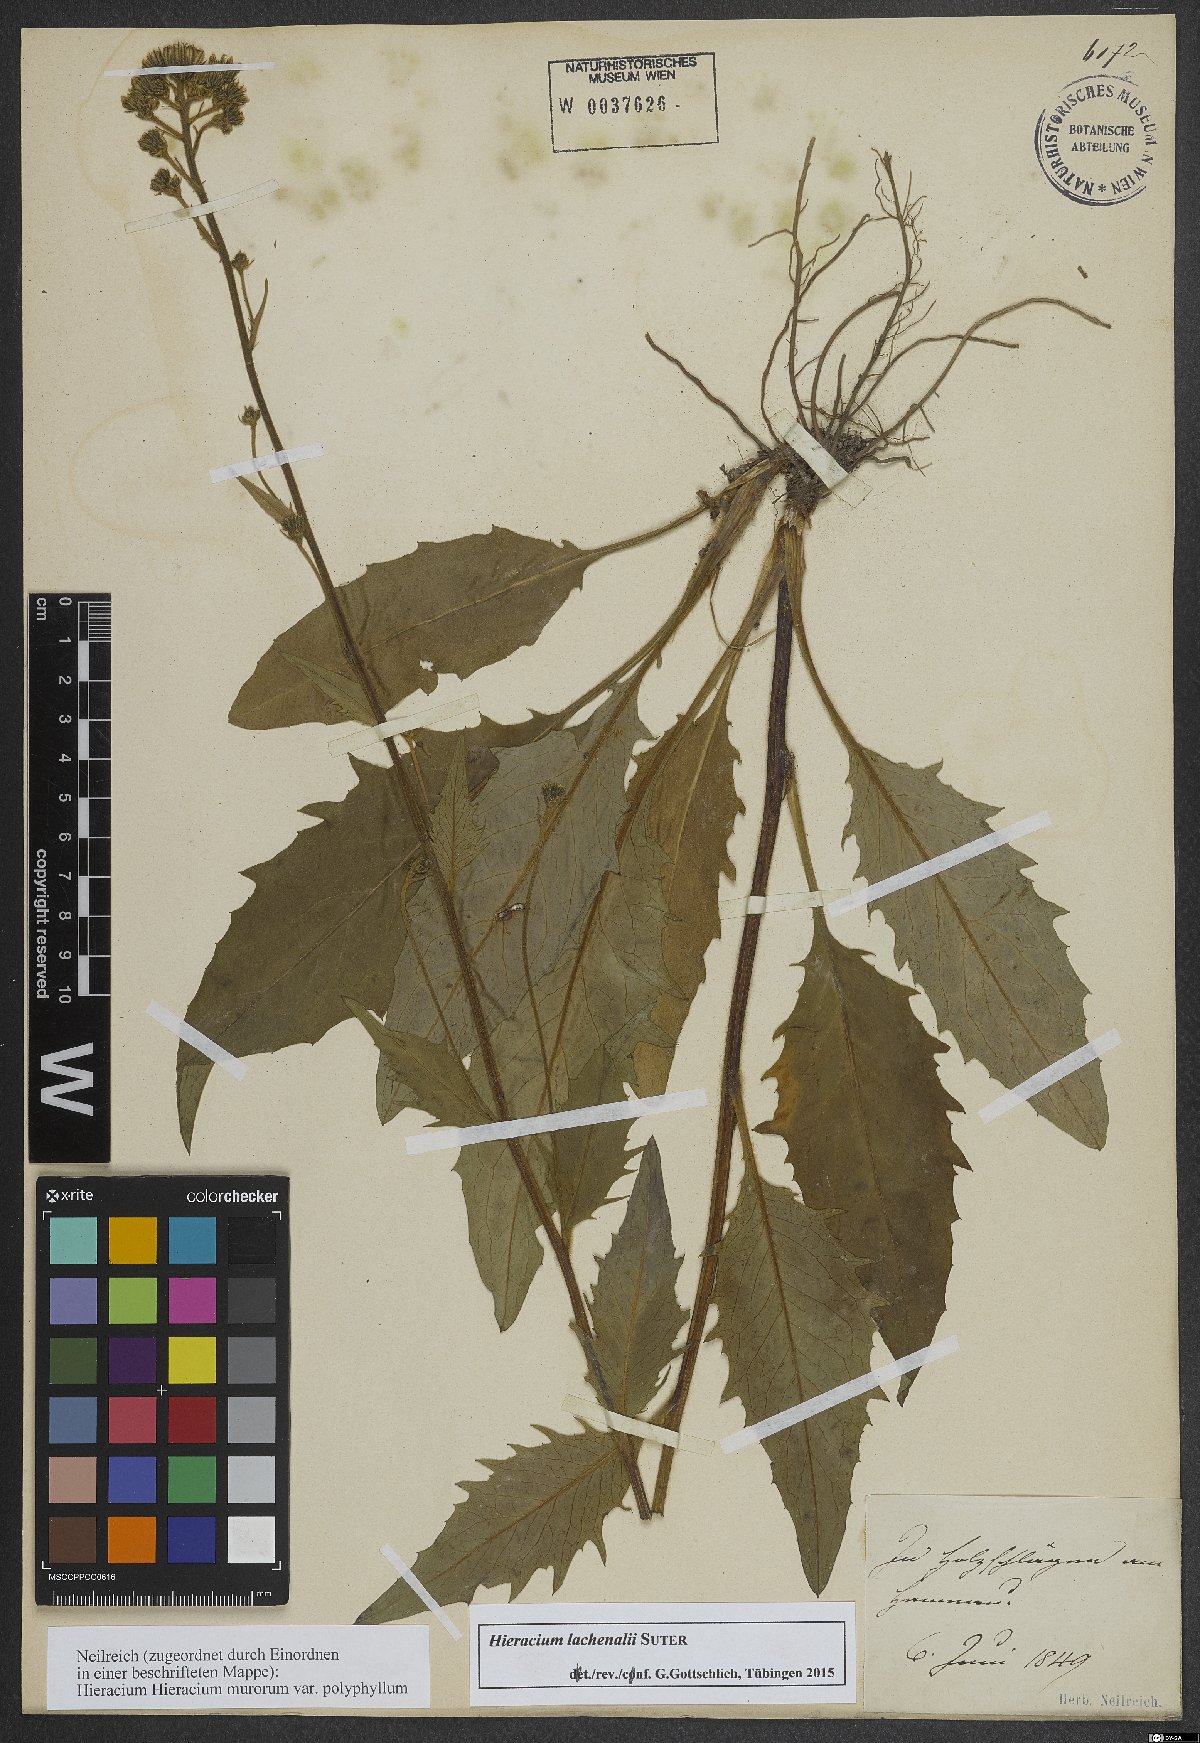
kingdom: Plantae
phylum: Tracheophyta
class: Magnoliopsida
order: Asterales
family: Asteraceae
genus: Hieracium
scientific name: Hieracium lachenalii
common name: Common hawkweed
